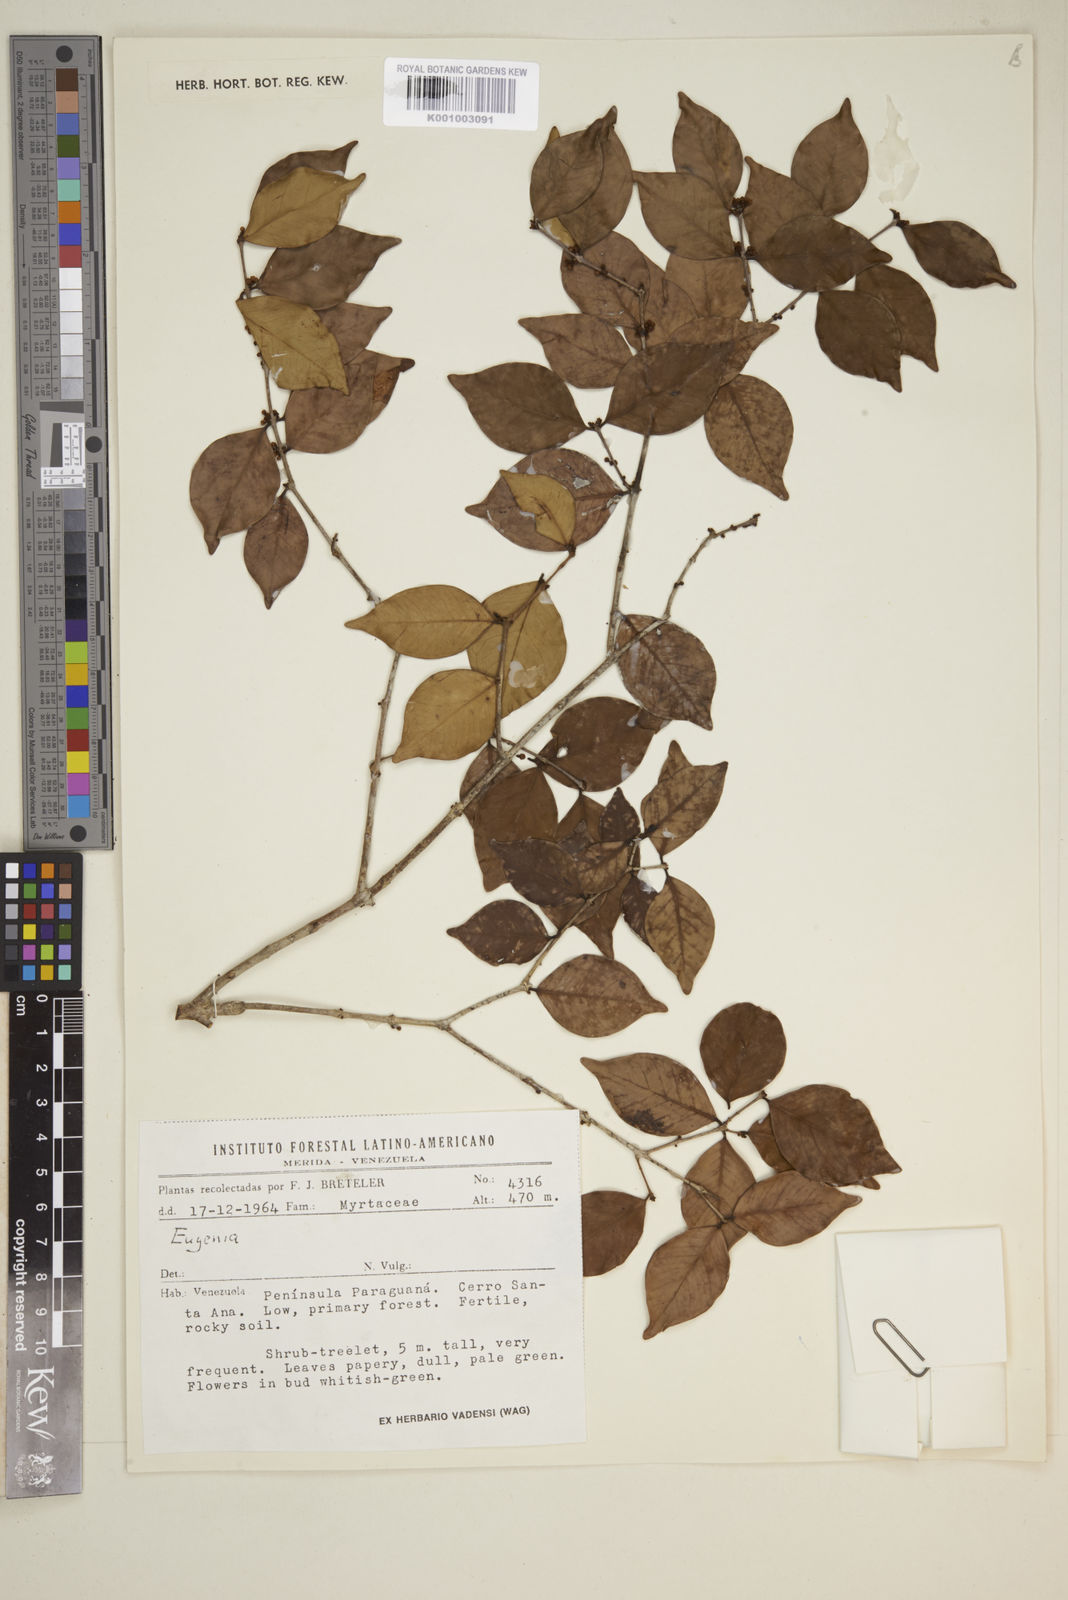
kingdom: Plantae
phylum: Tracheophyta
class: Magnoliopsida
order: Myrtales
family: Myrtaceae
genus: Eugenia
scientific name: Eugenia
